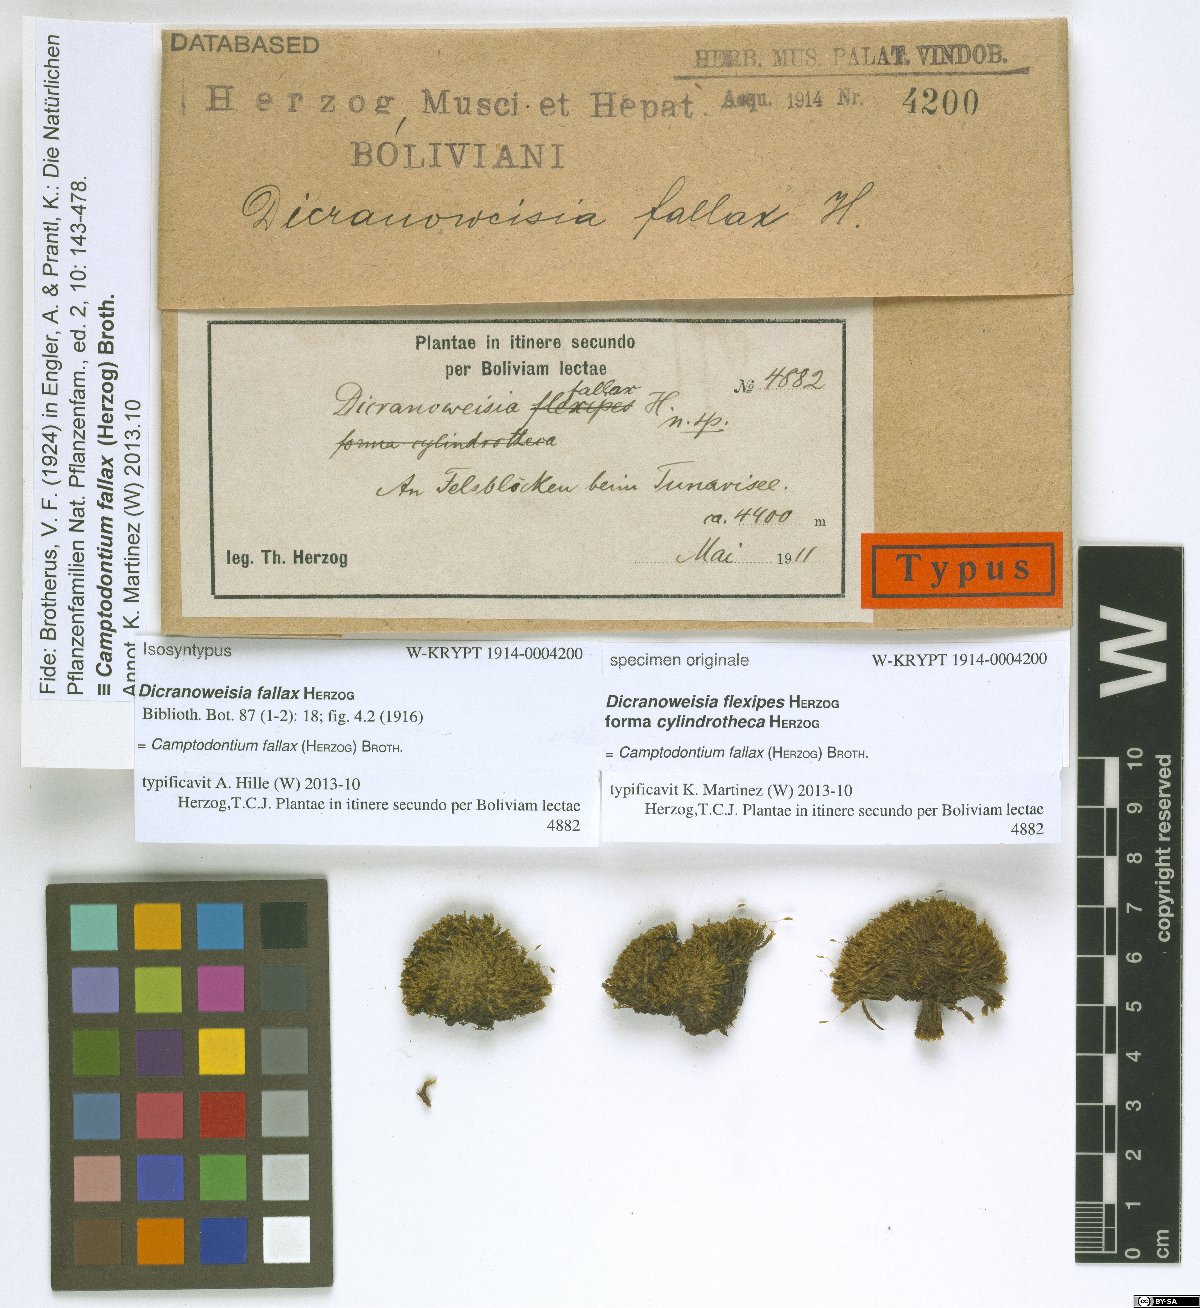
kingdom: Plantae
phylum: Bryophyta
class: Bryopsida
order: Dicranales
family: Rhabdoweisiaceae
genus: Cynodontium
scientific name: Cynodontium peruvianum
